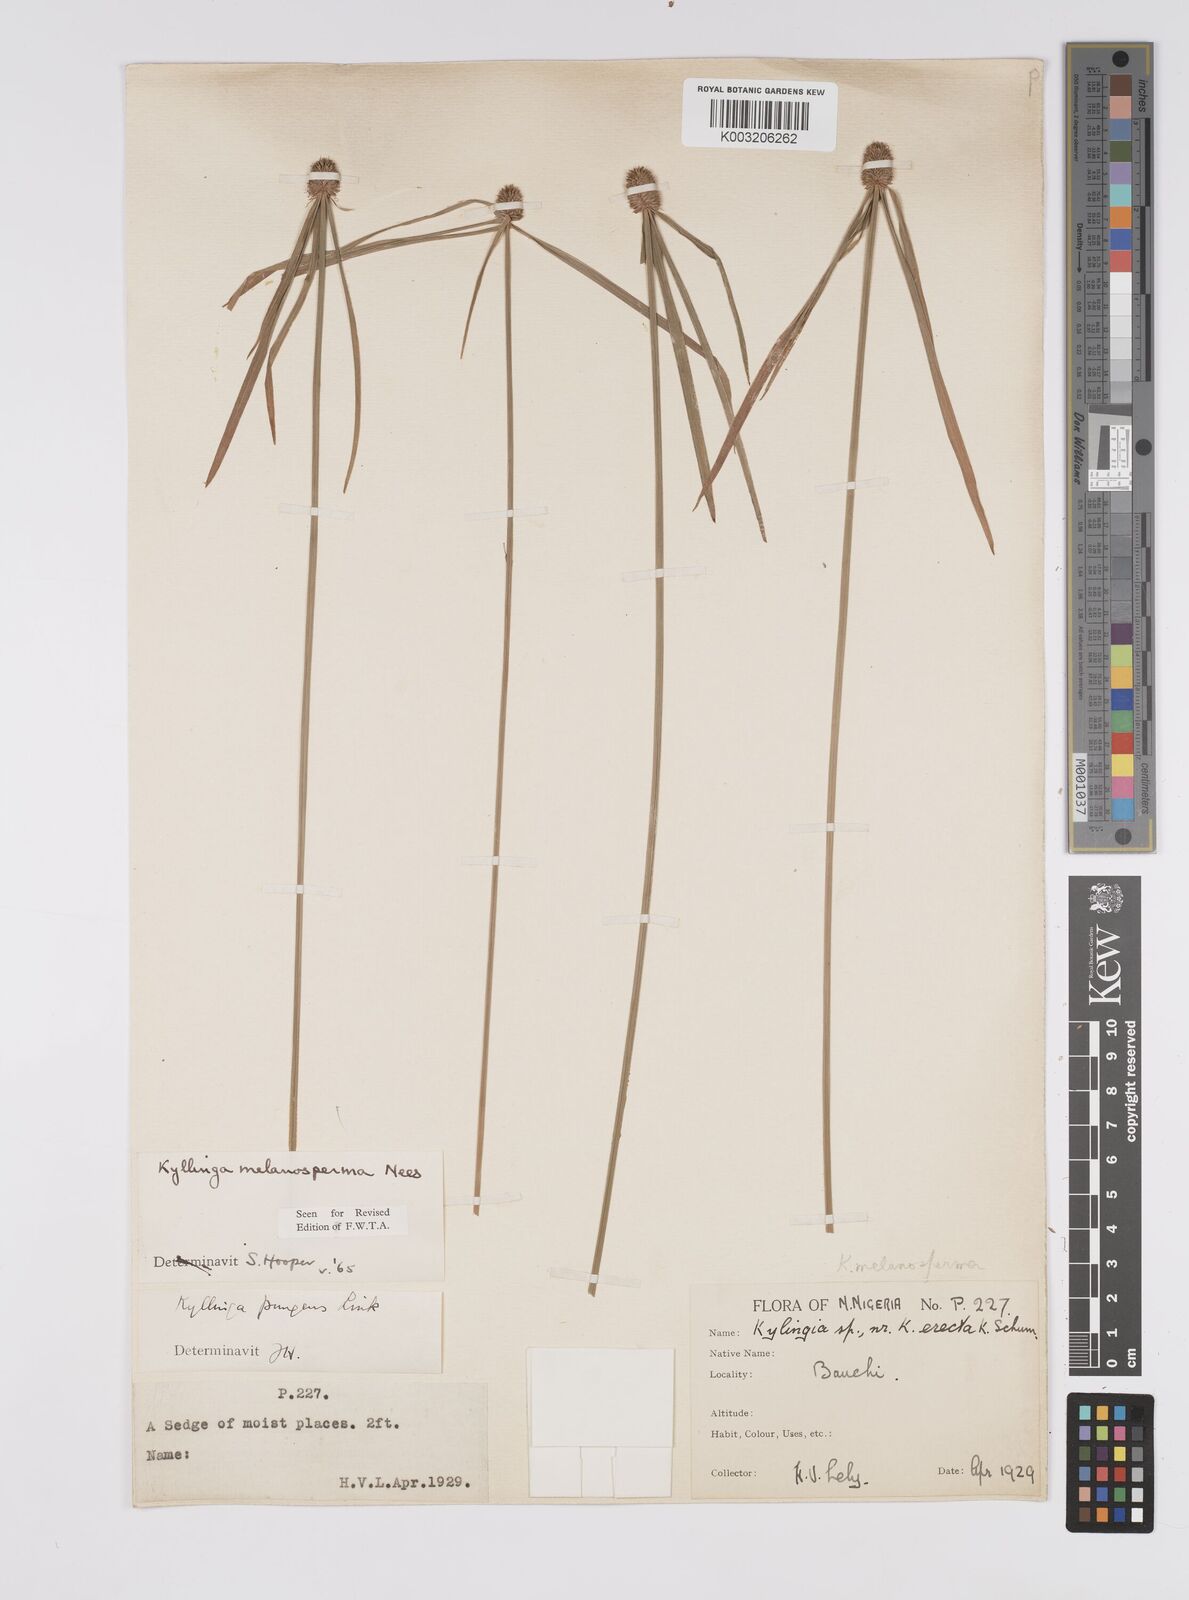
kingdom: Plantae
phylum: Tracheophyta
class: Liliopsida
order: Poales
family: Cyperaceae
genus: Cyperus
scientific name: Cyperus melanospermus
